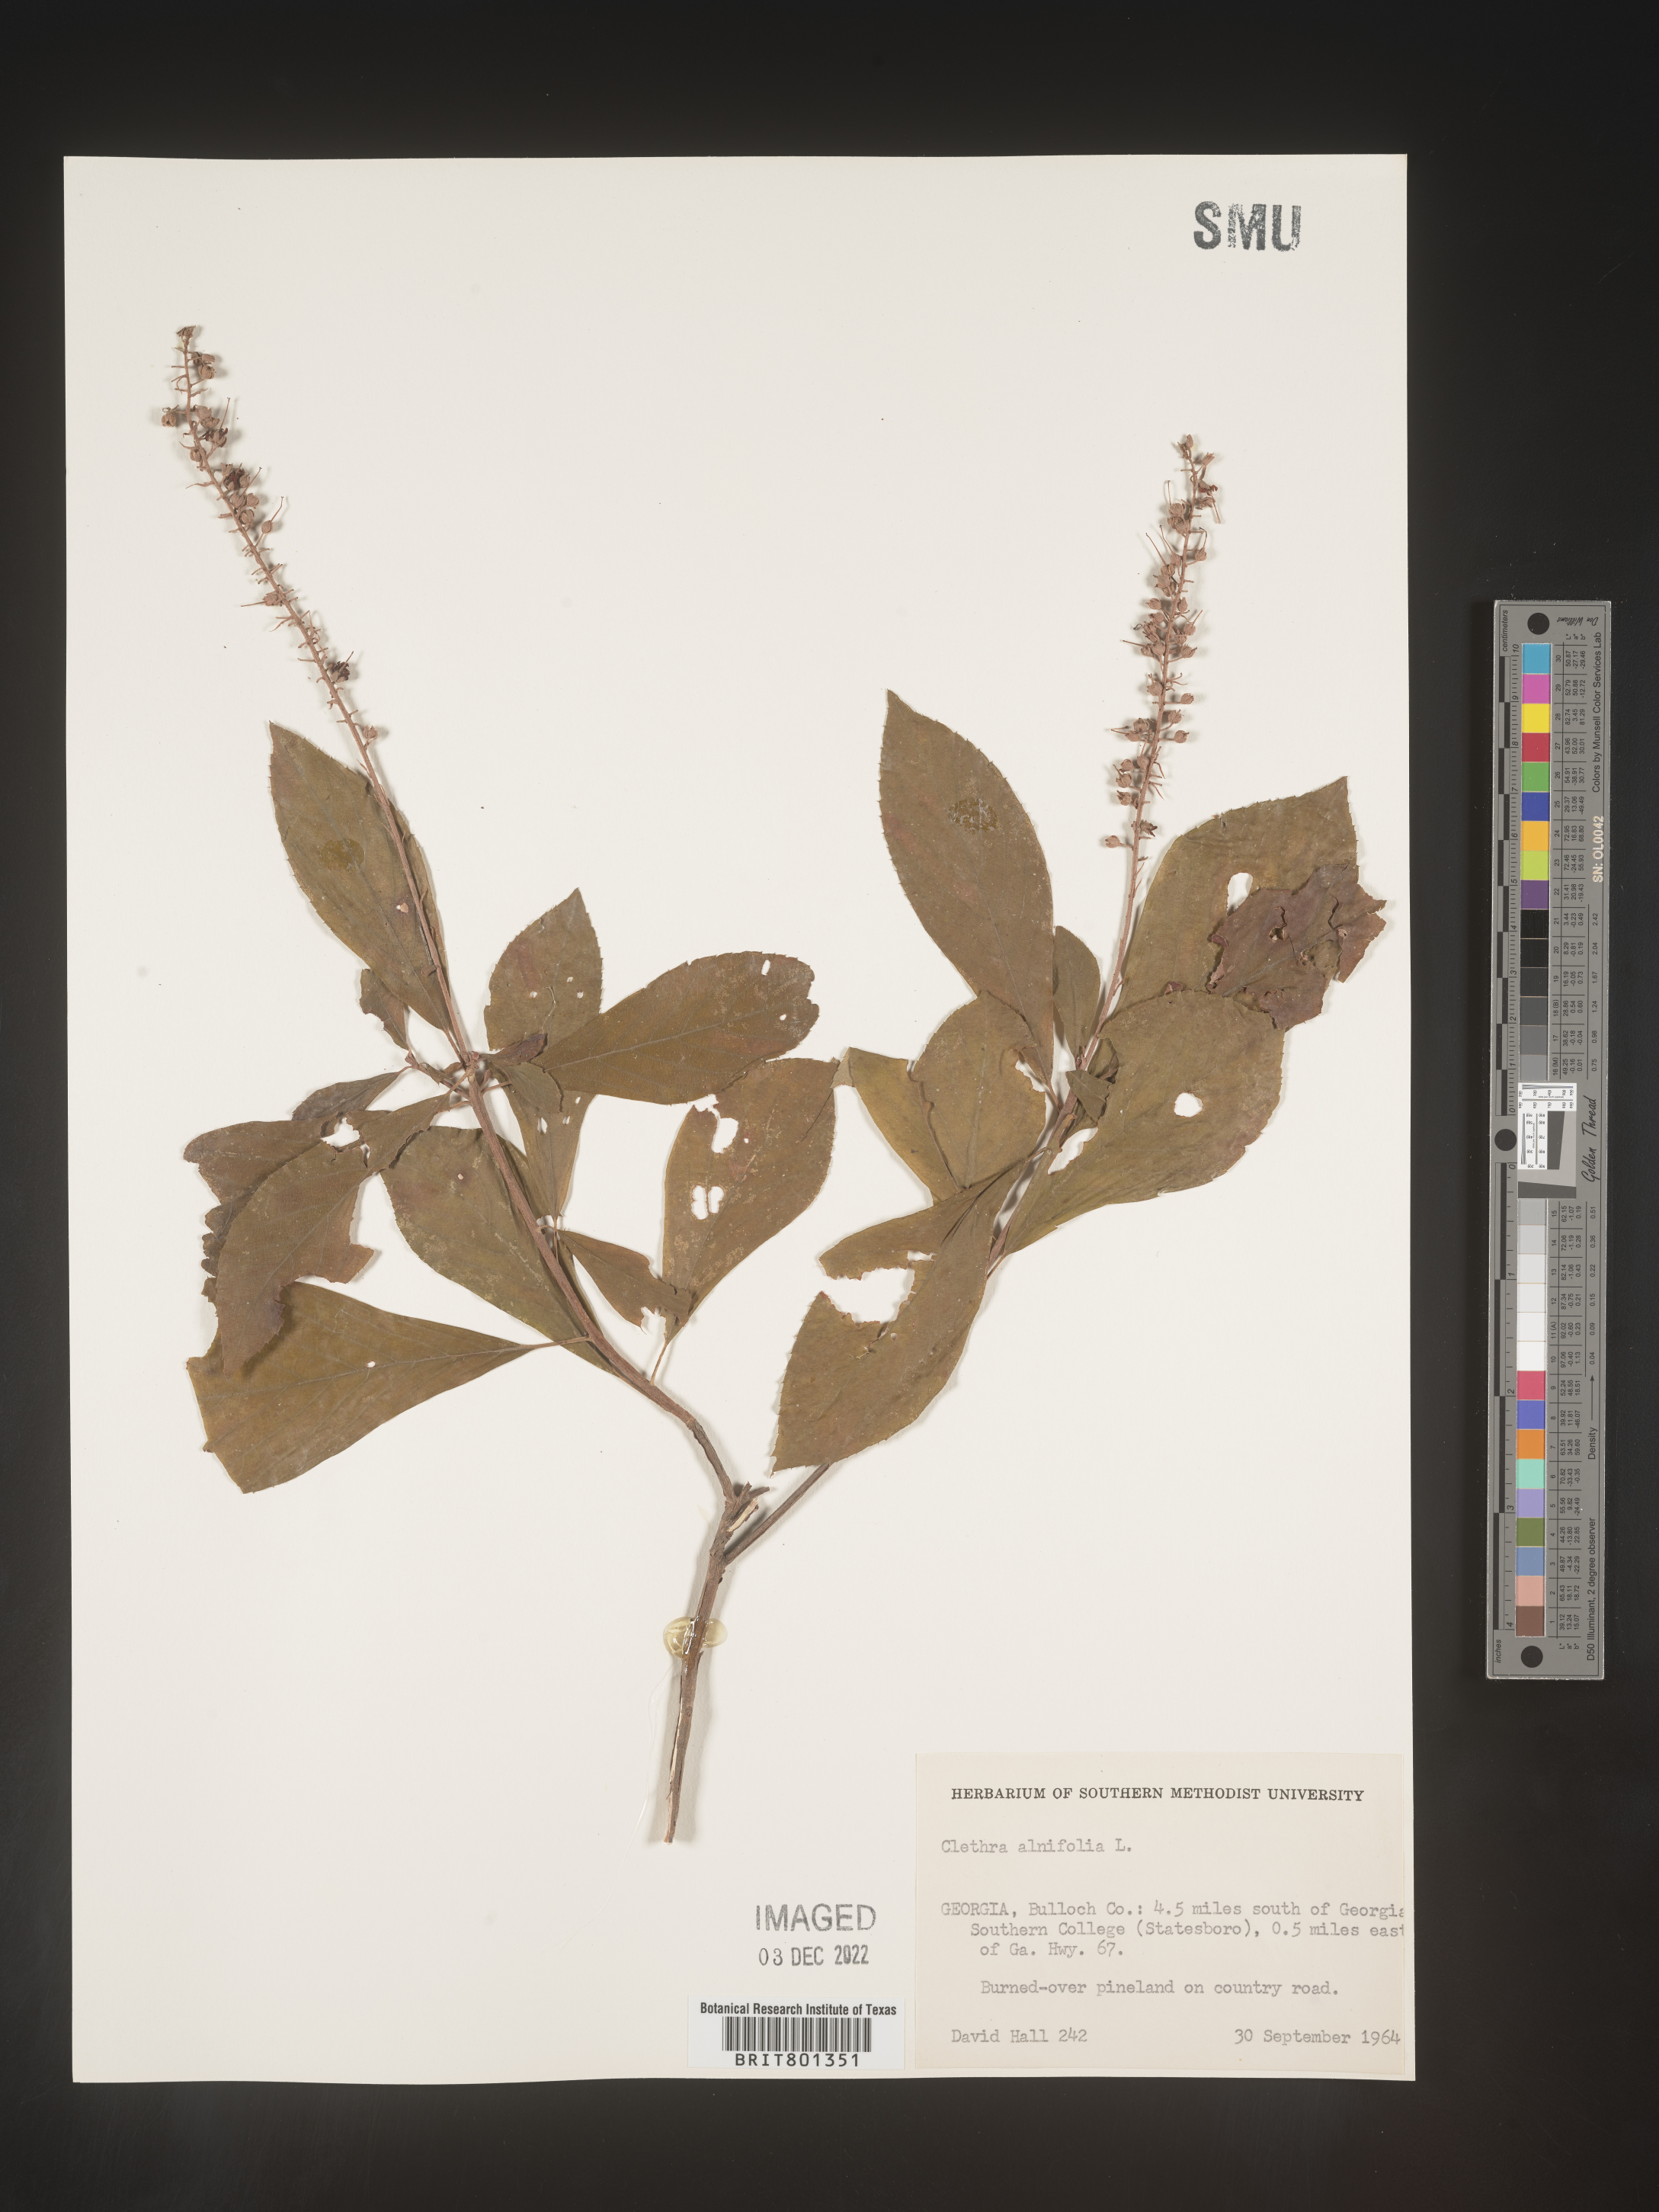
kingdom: Plantae
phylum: Tracheophyta
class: Magnoliopsida
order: Ericales
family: Clethraceae
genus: Clethra
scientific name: Clethra alnifolia
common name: Sweet pepperbush
